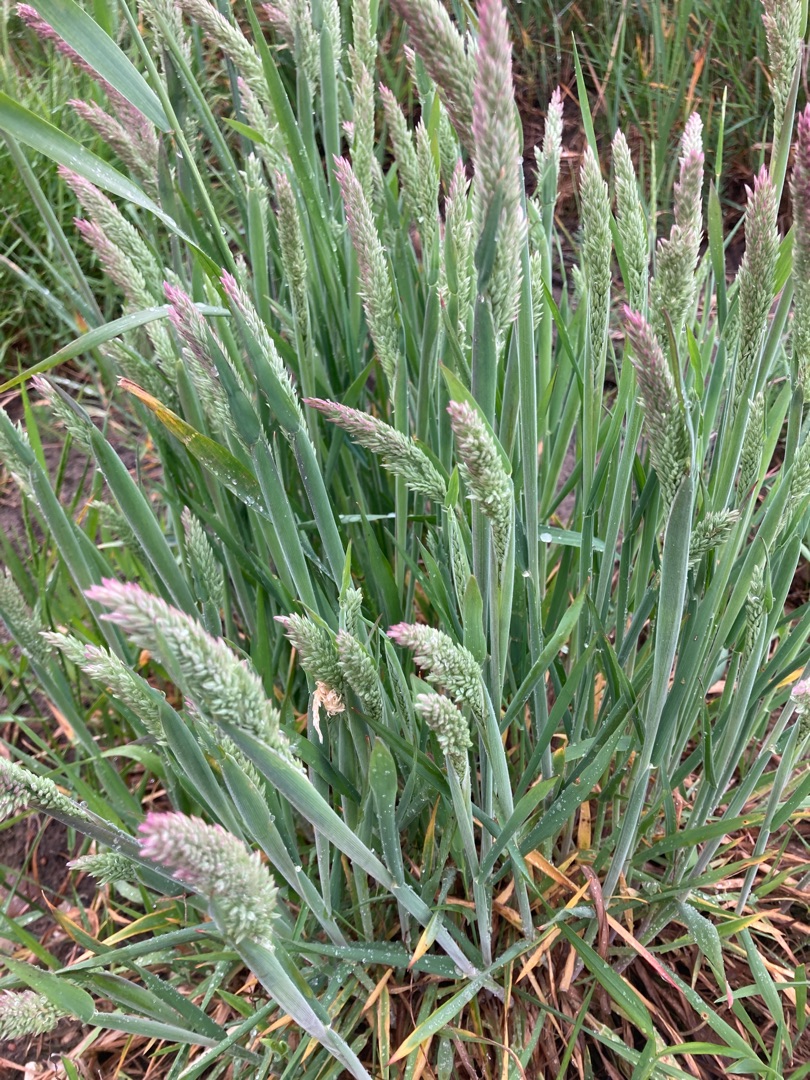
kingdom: Plantae
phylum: Tracheophyta
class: Liliopsida
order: Poales
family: Poaceae
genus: Holcus
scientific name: Holcus lanatus
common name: Fløjlsgræs
